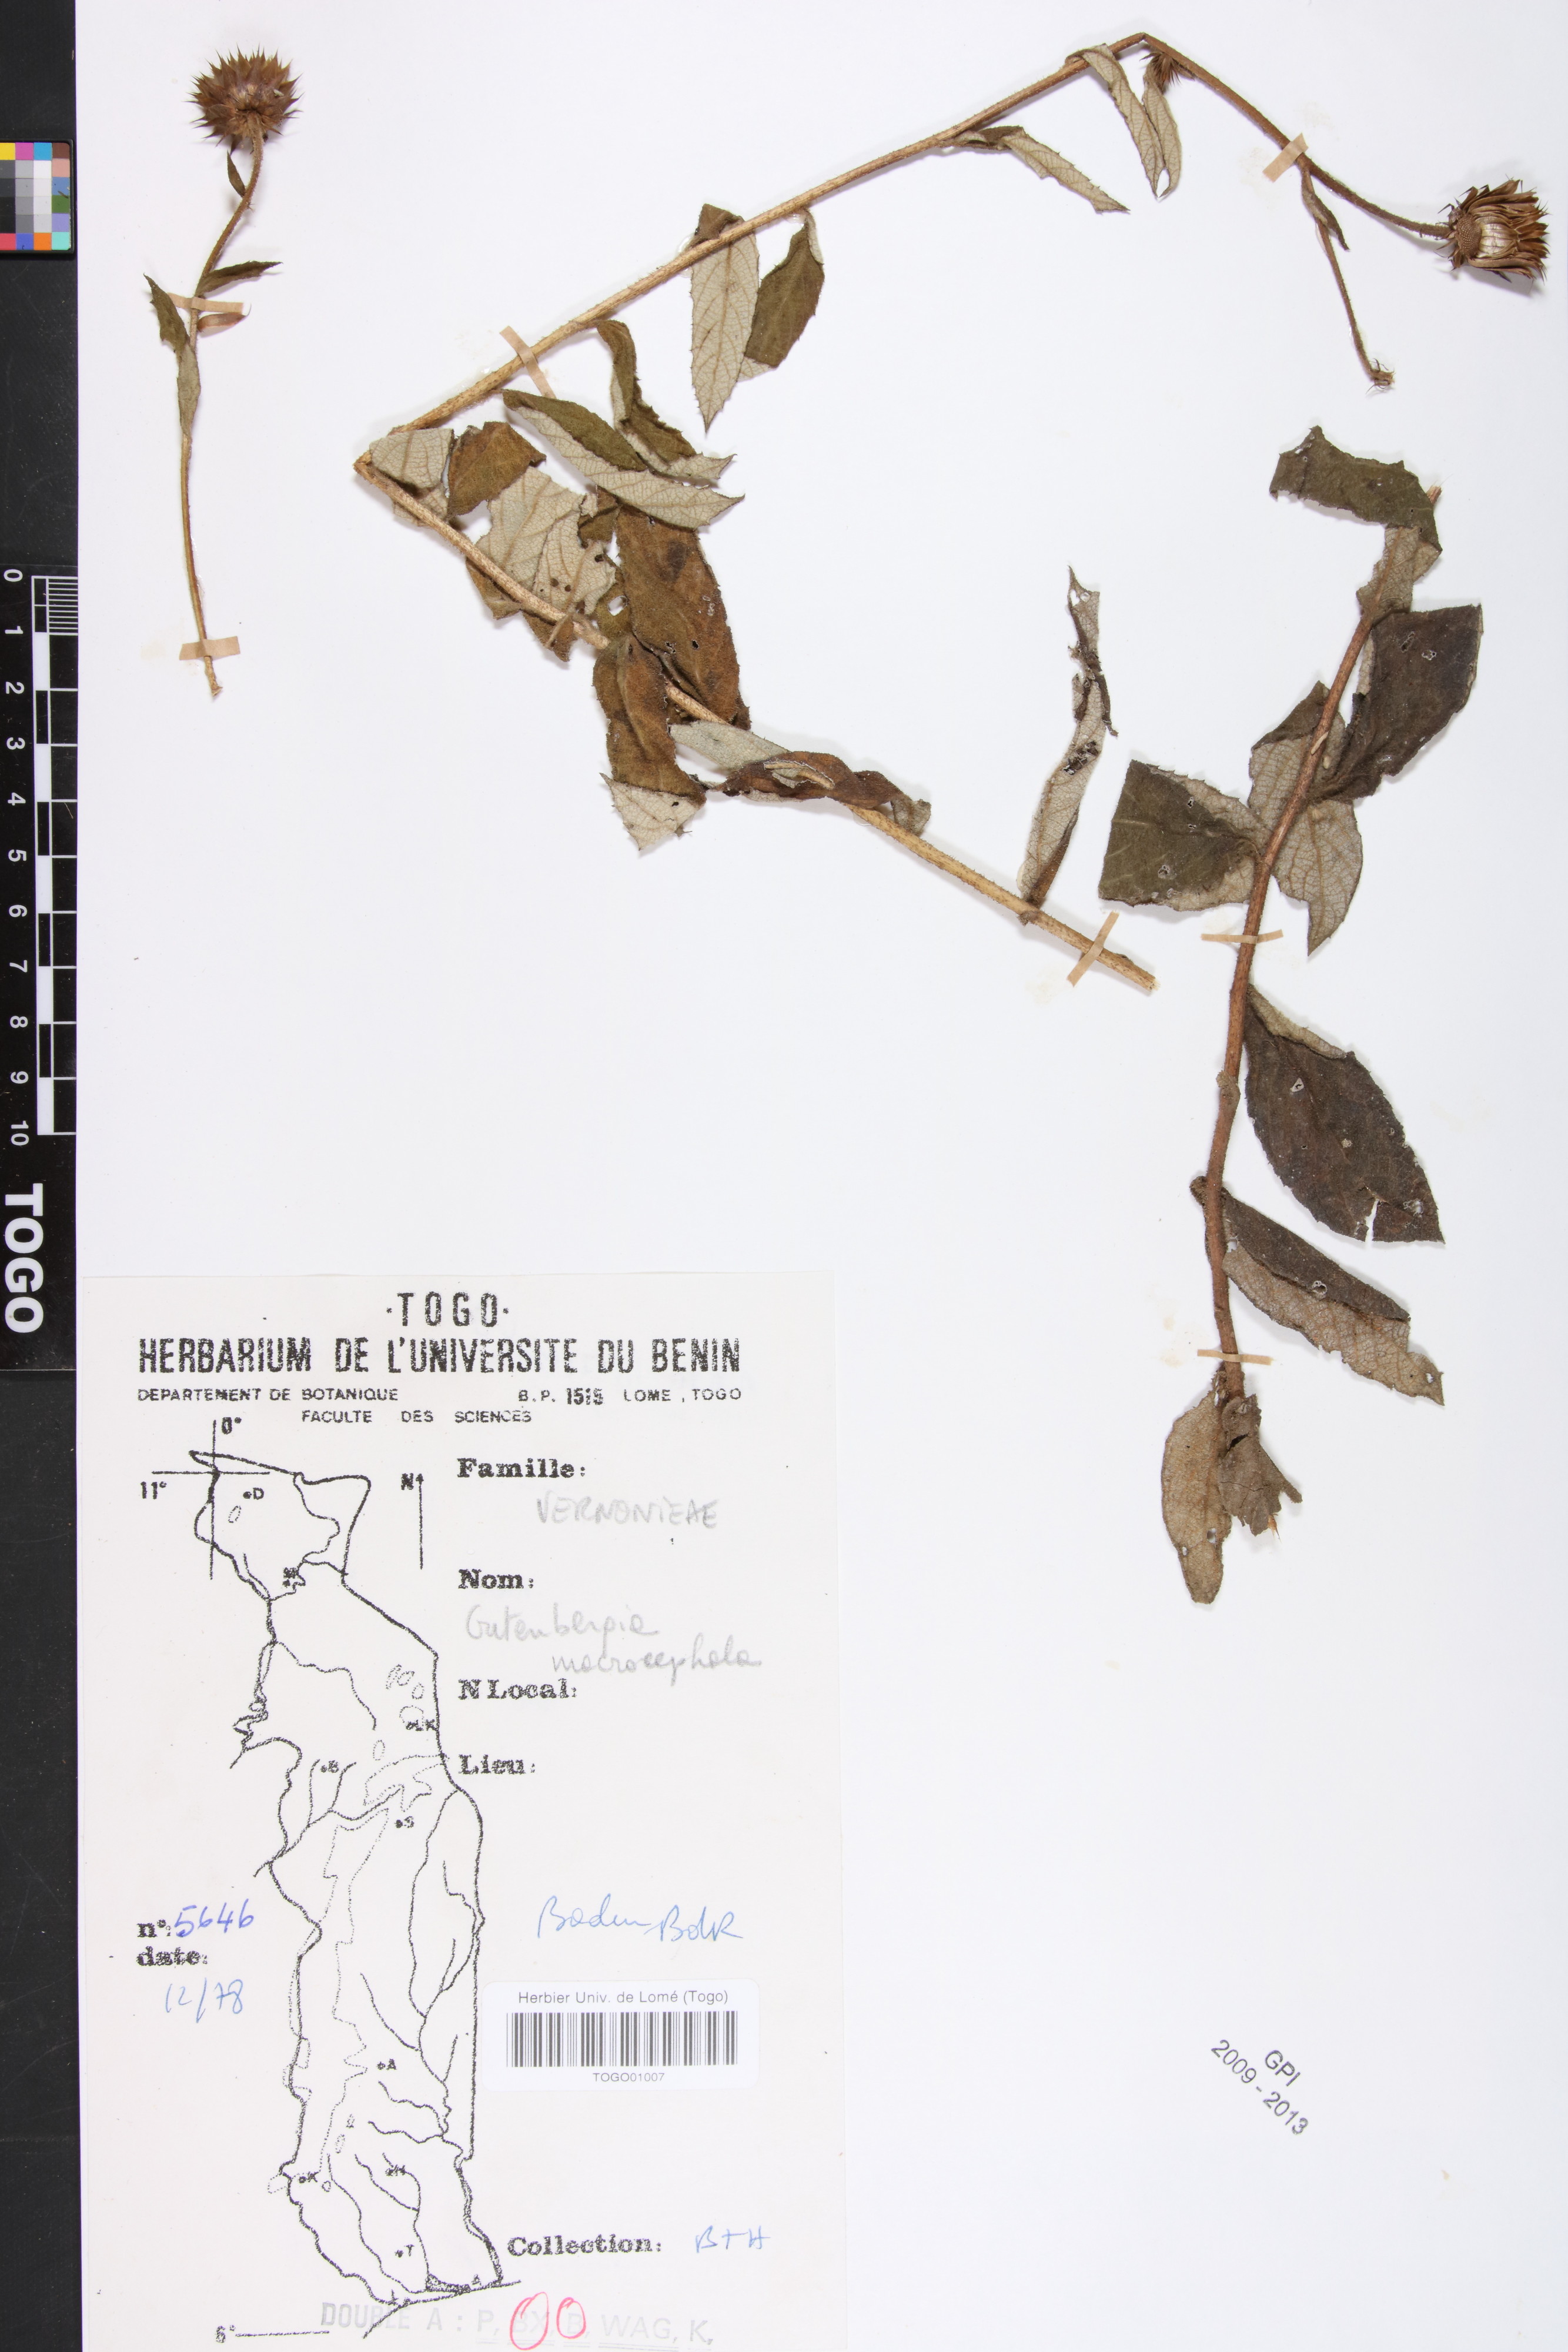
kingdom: Plantae
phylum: Tracheophyta
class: Magnoliopsida
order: Asterales
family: Asteraceae
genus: Kinghamia
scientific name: Kinghamia macrocephala
